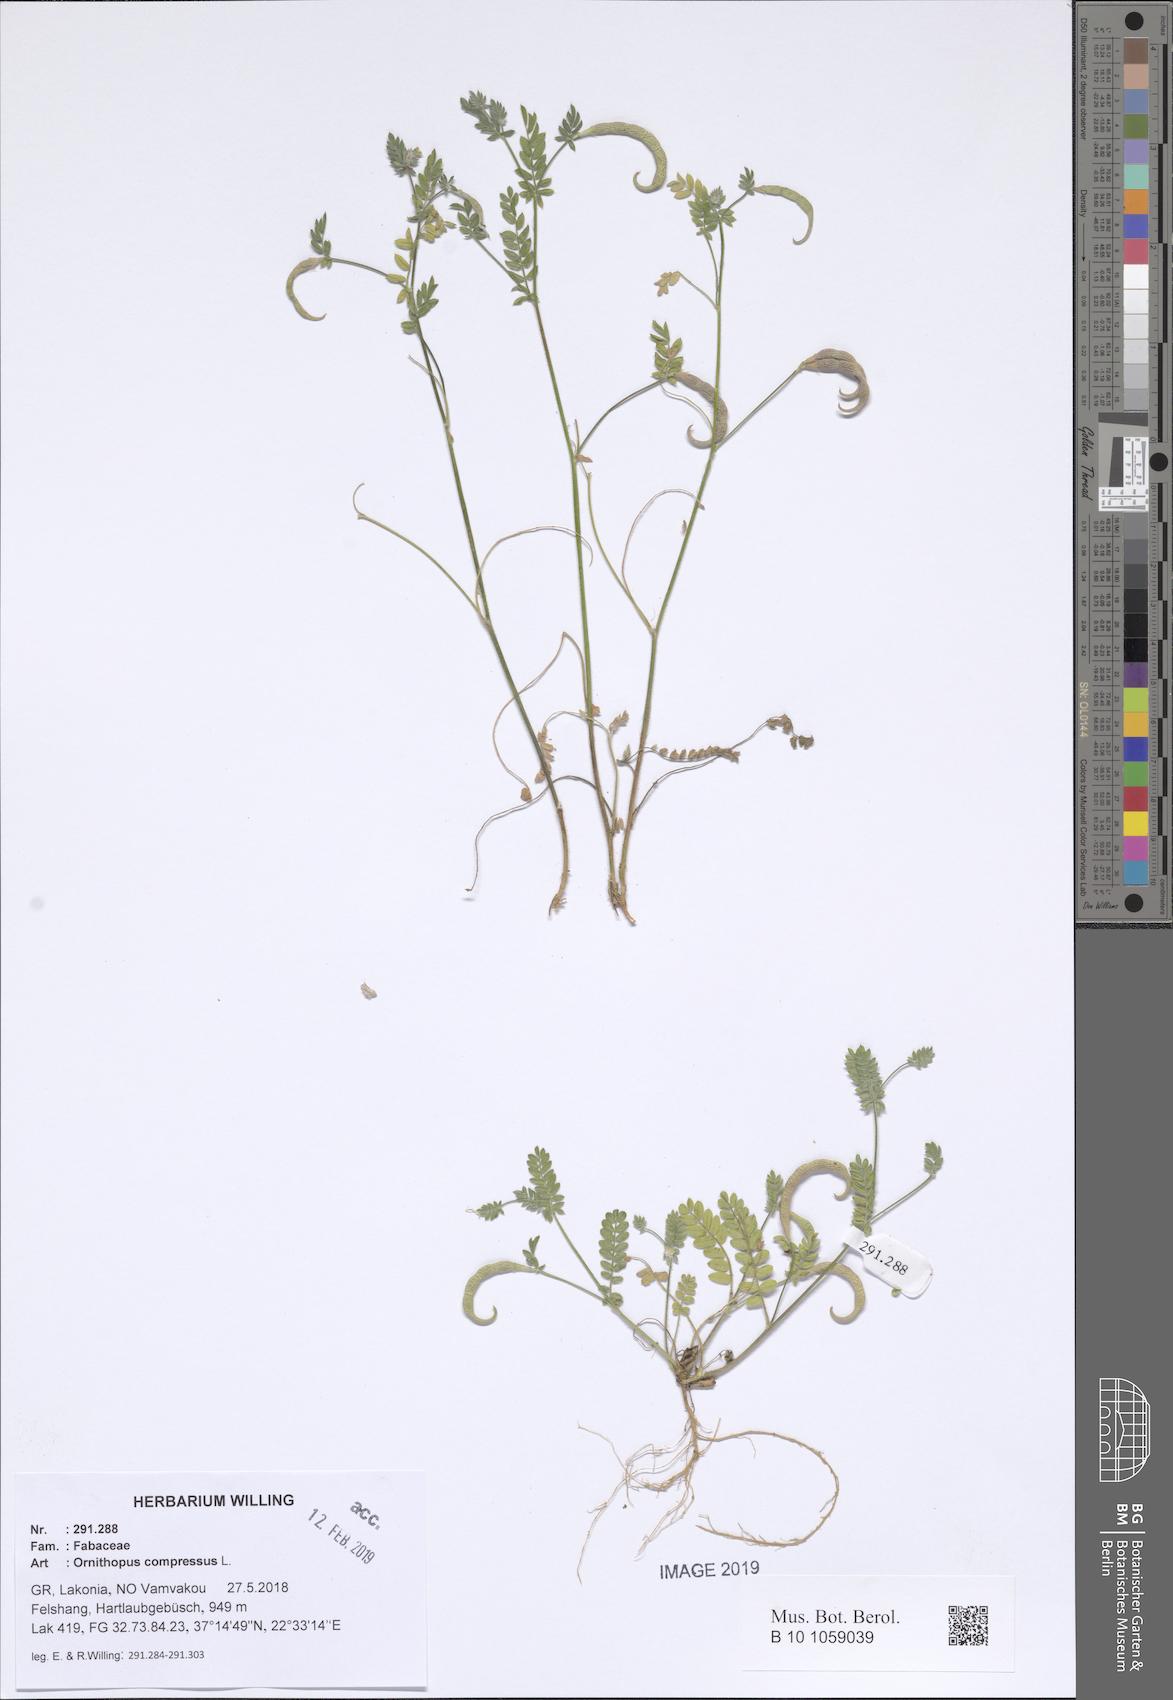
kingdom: Plantae
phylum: Tracheophyta
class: Magnoliopsida
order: Fabales
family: Fabaceae
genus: Ornithopus
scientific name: Ornithopus compressus
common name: Yellow serradella
